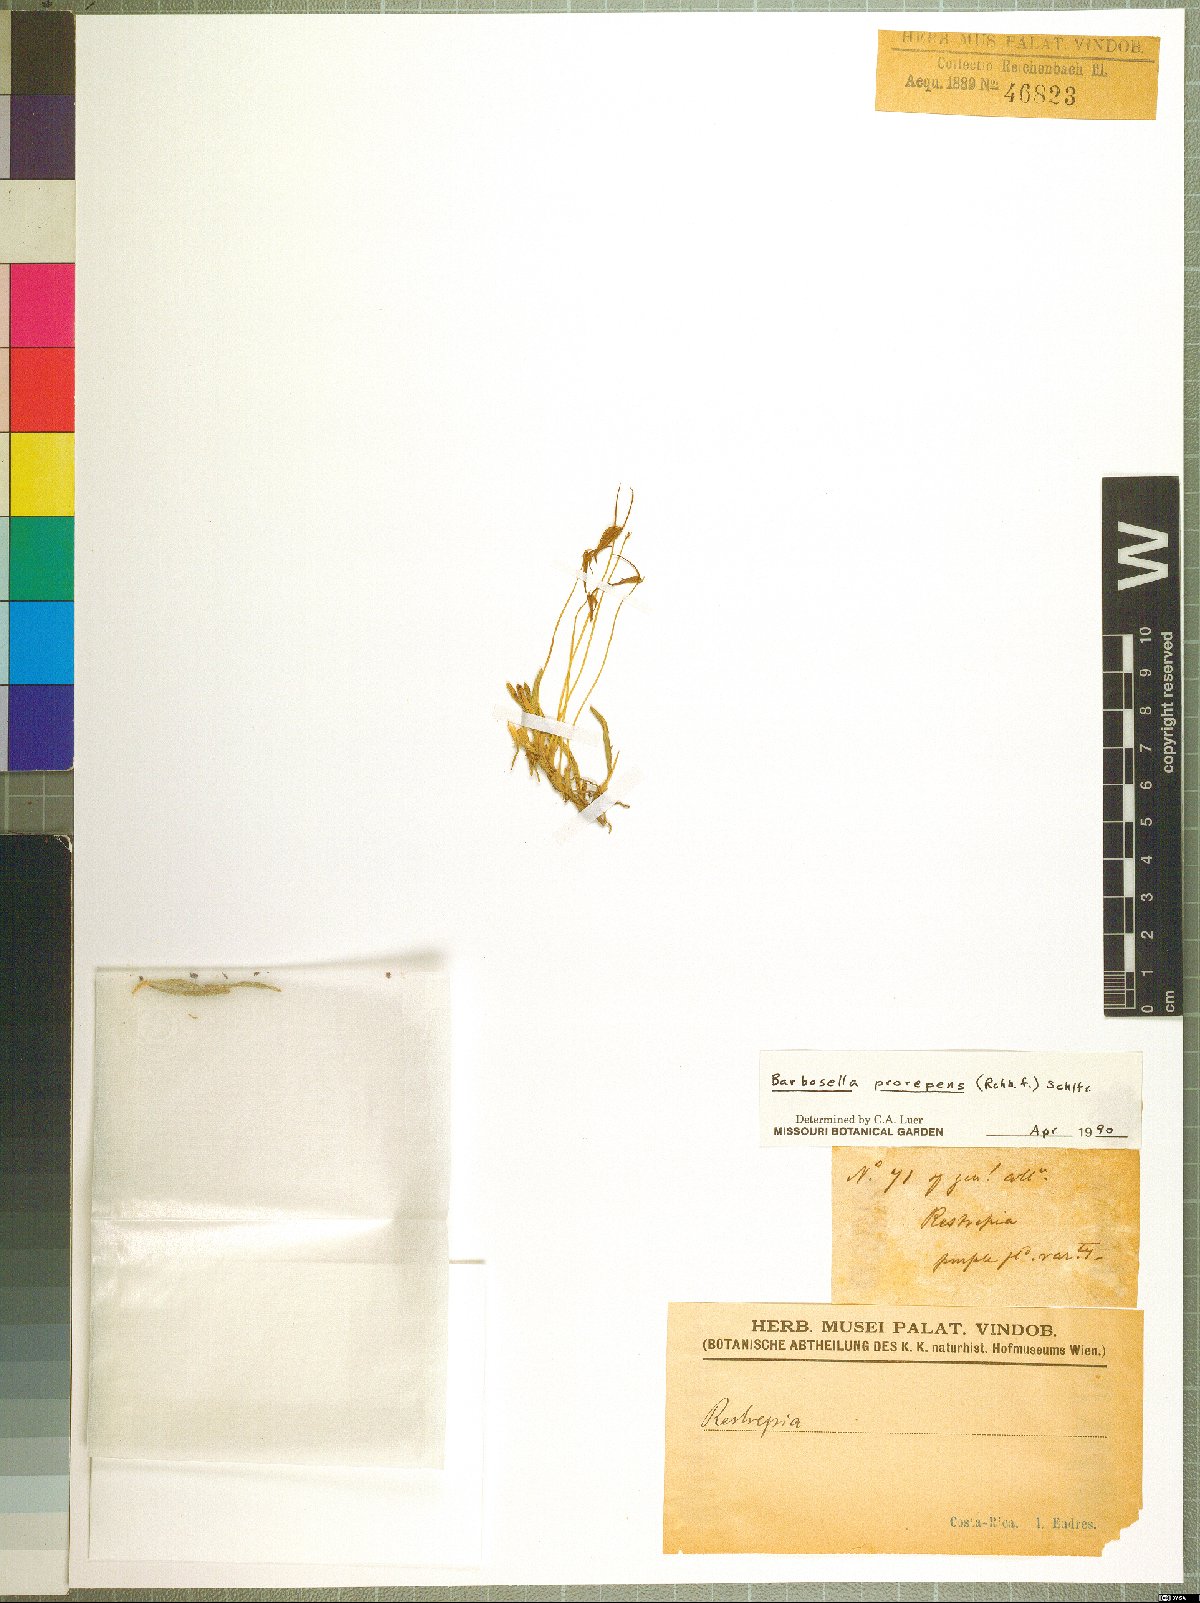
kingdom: Plantae
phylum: Tracheophyta
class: Liliopsida
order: Asparagales
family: Orchidaceae
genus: Barbosella
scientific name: Barbosella prorepens
